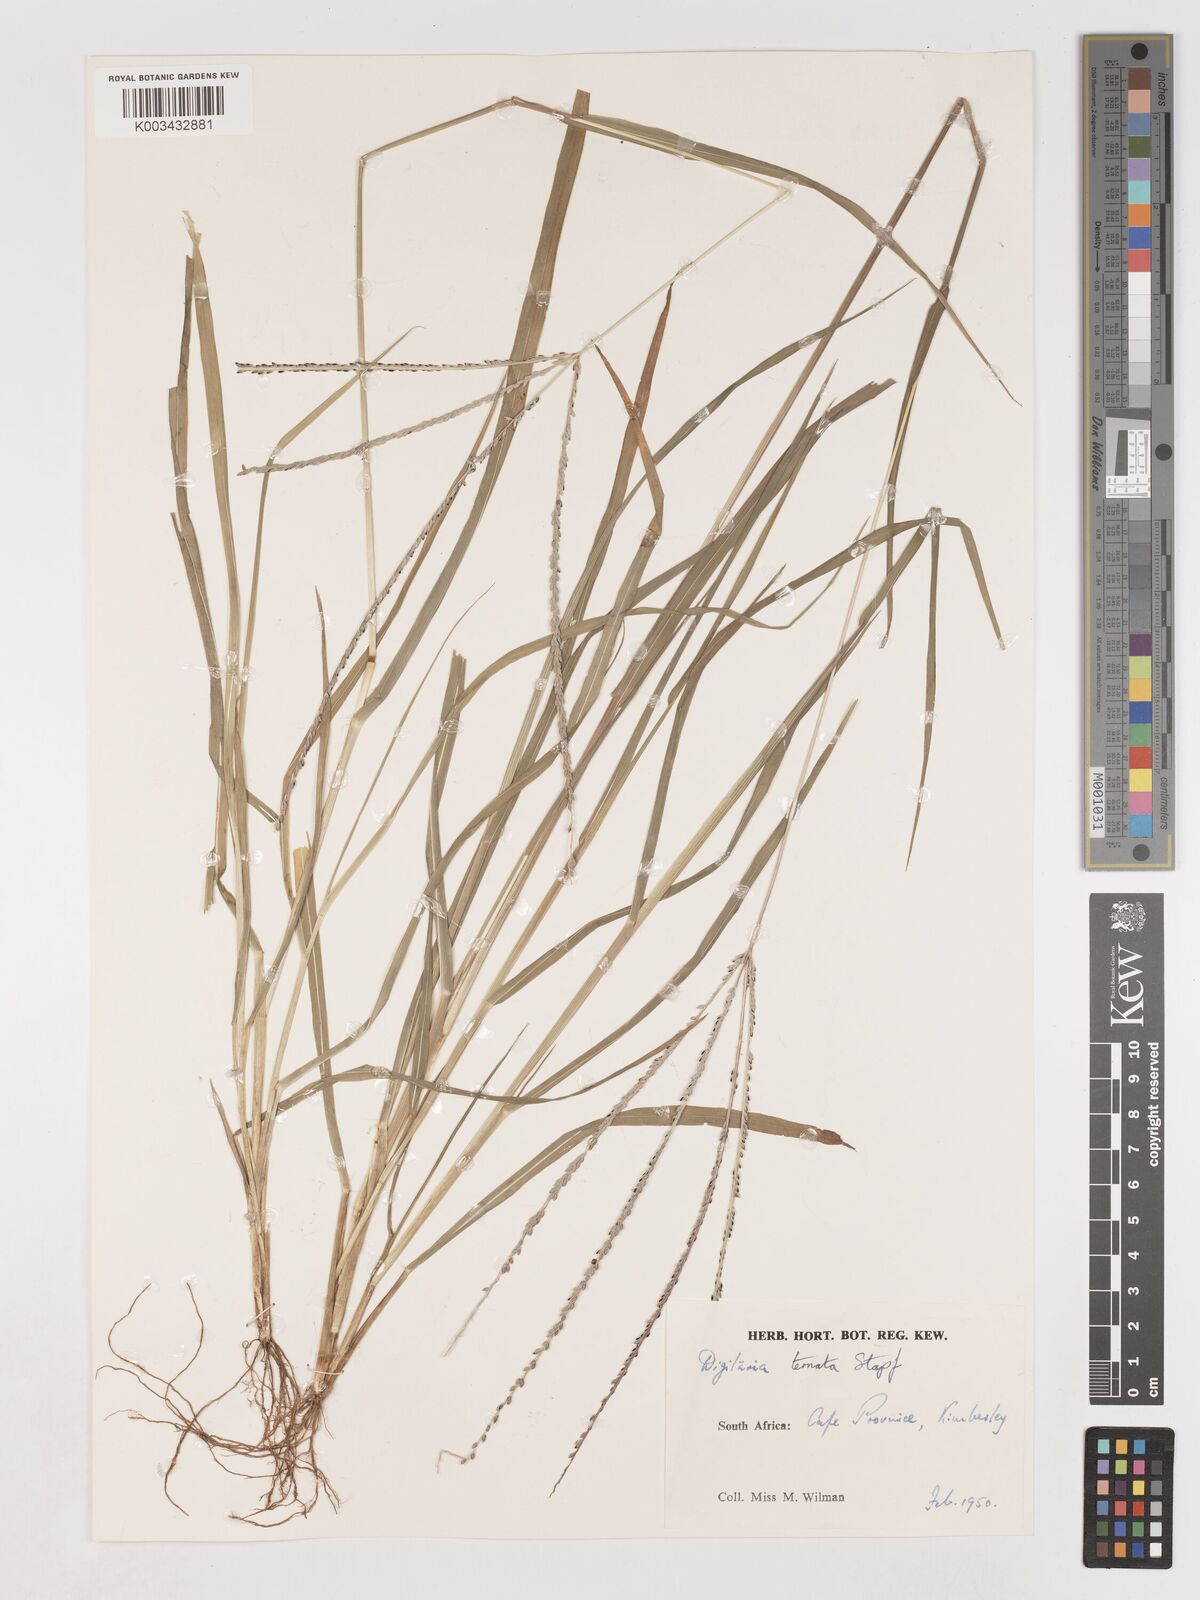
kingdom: Plantae
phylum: Tracheophyta
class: Liliopsida
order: Poales
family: Poaceae
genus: Digitaria
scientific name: Digitaria ternata
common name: Blackseed crabgrass
